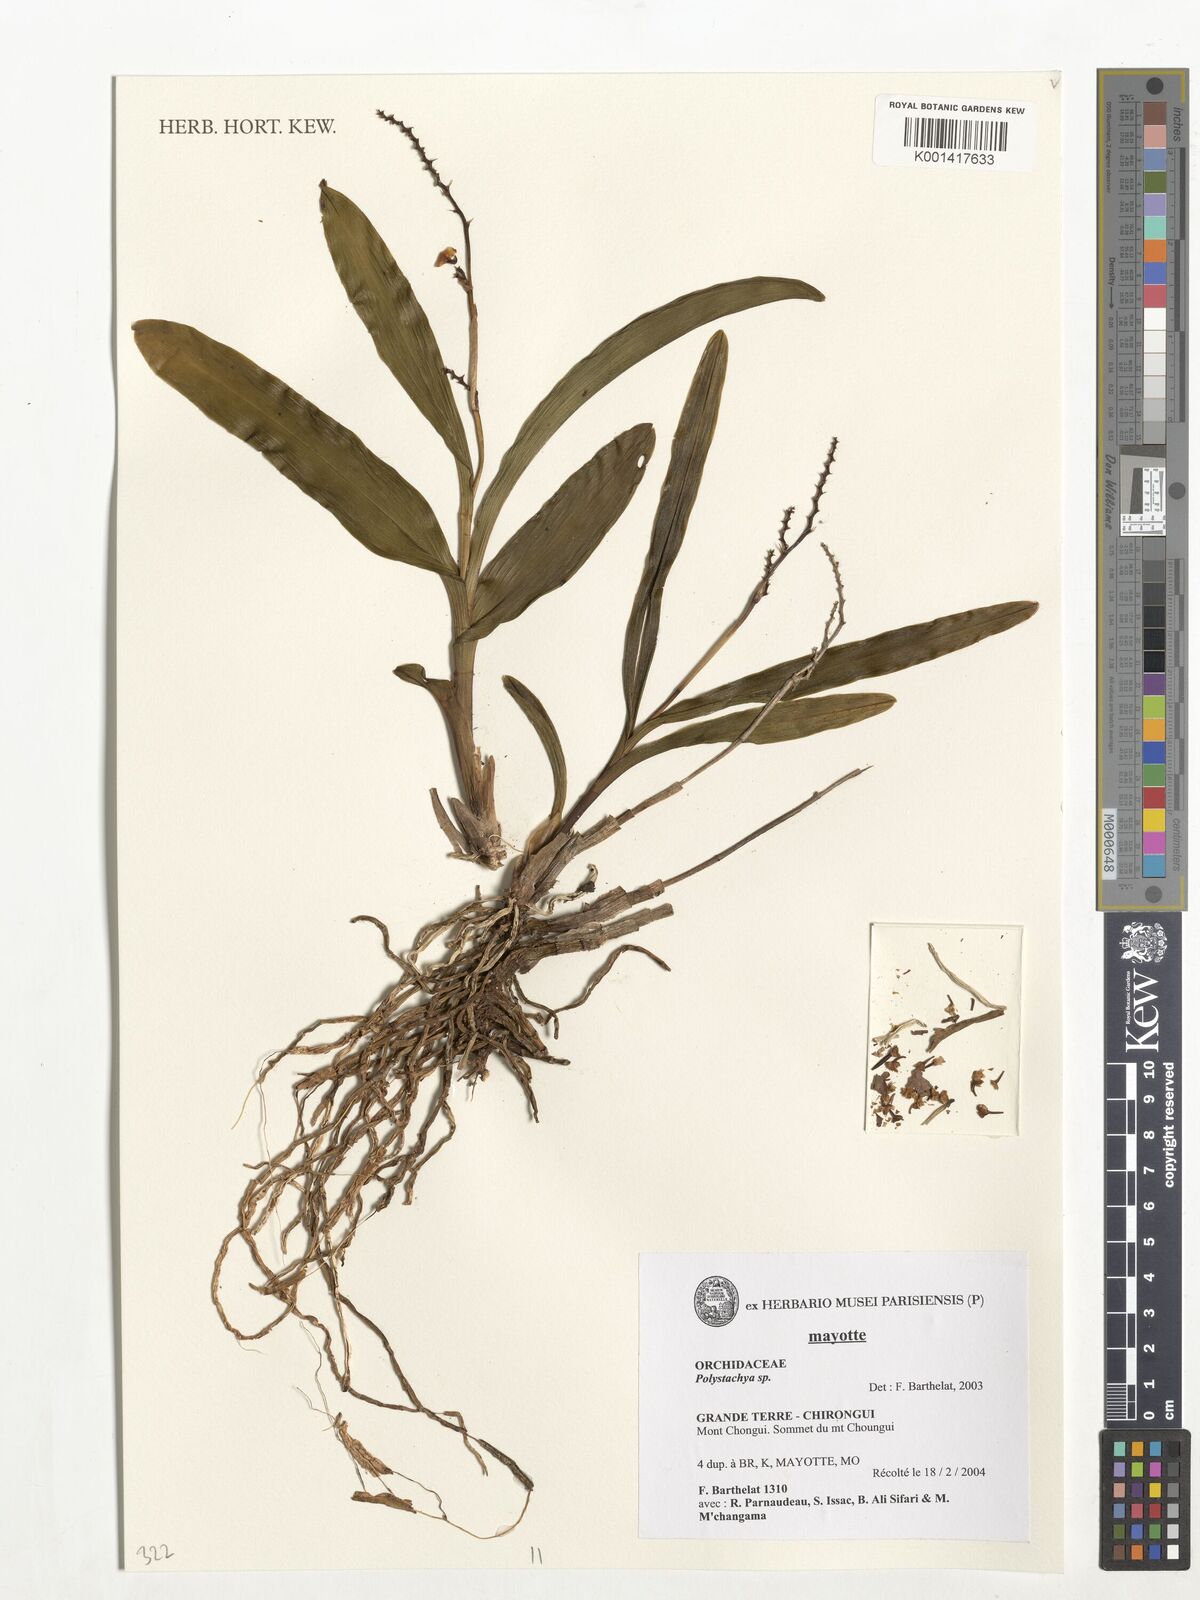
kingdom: Plantae
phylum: Tracheophyta
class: Liliopsida
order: Asparagales
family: Orchidaceae
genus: Polystachya
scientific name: Polystachya waterlotii
